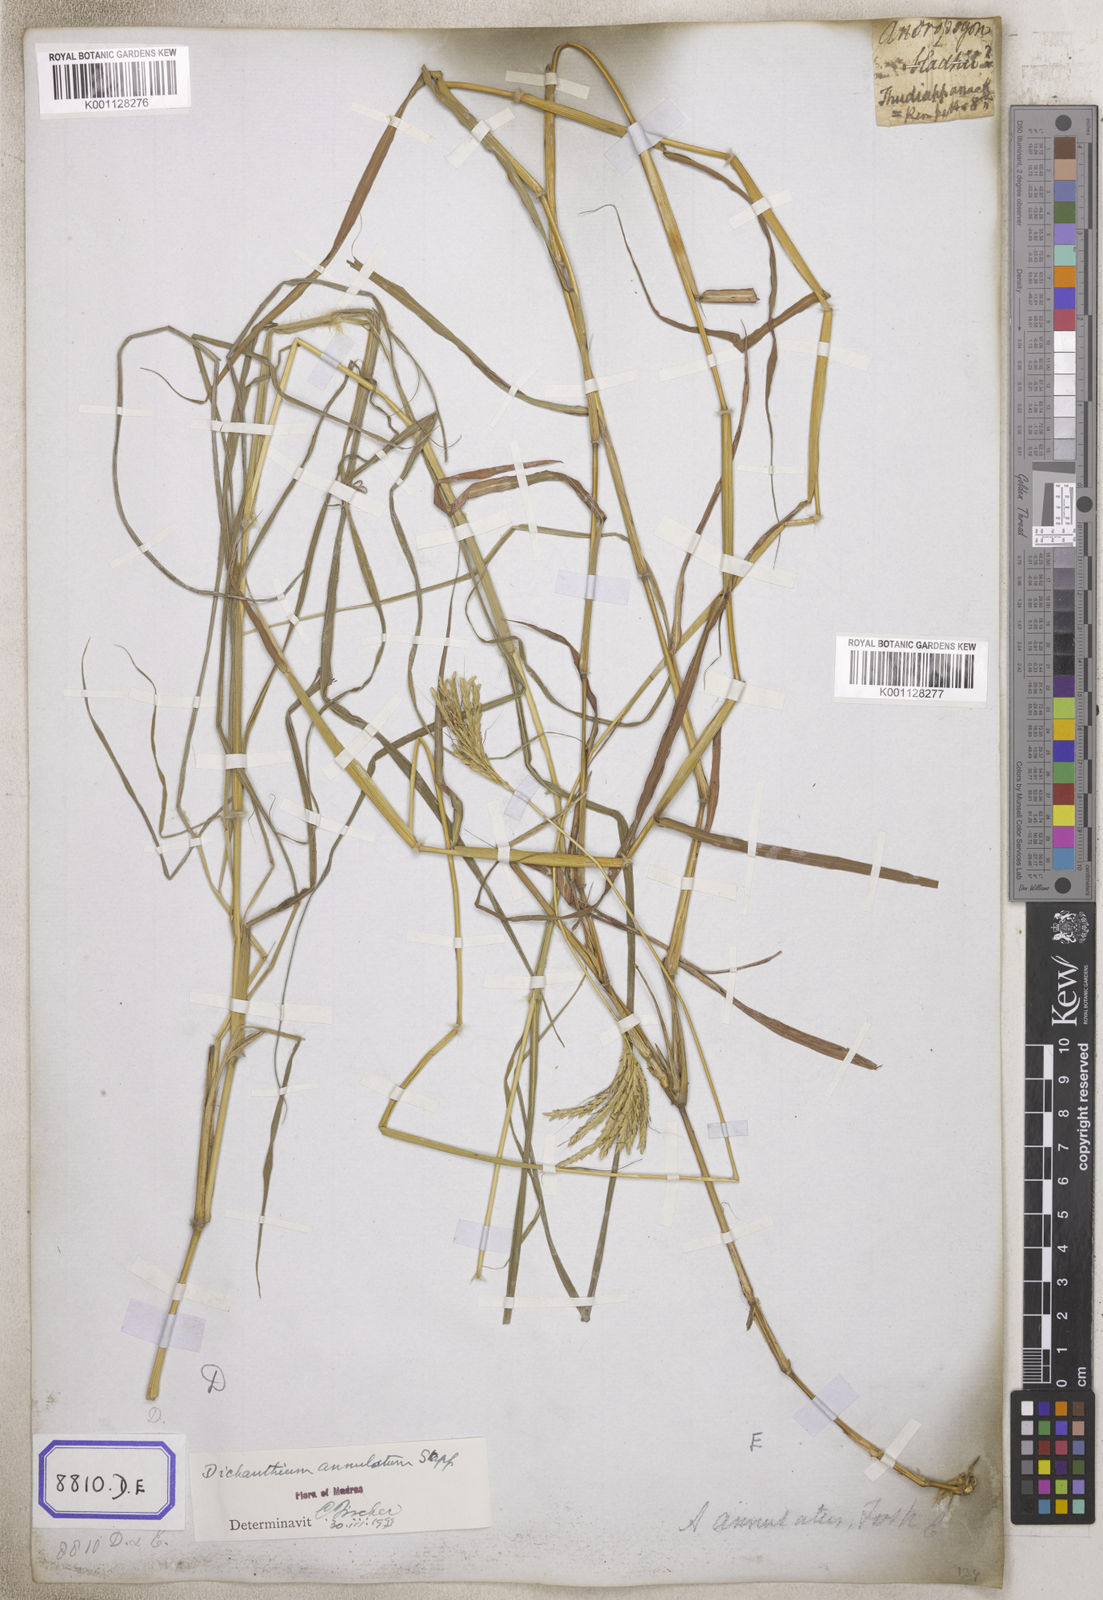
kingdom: Plantae
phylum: Tracheophyta
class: Liliopsida
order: Poales
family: Poaceae
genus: Andropogon
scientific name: Andropogon
